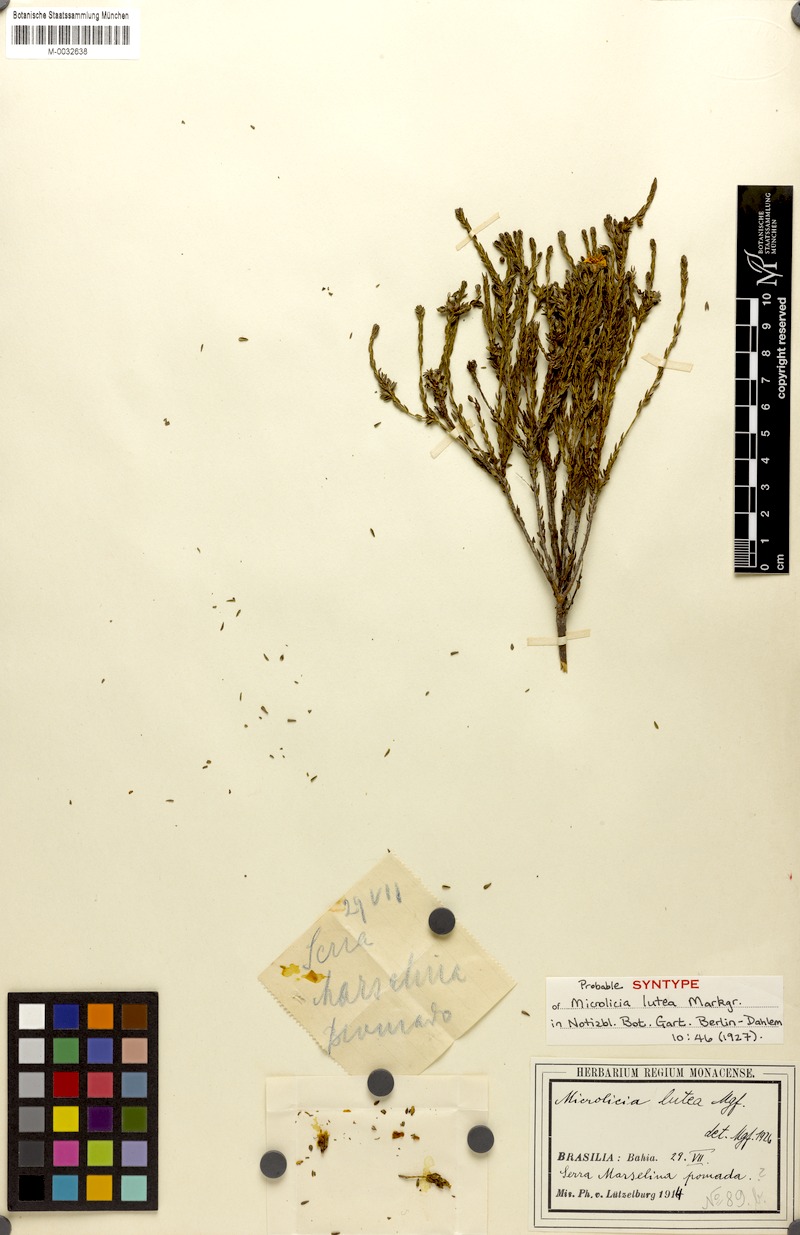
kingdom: Plantae
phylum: Tracheophyta
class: Magnoliopsida
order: Myrtales
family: Melastomataceae
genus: Microlicia
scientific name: Microlicia lutea
